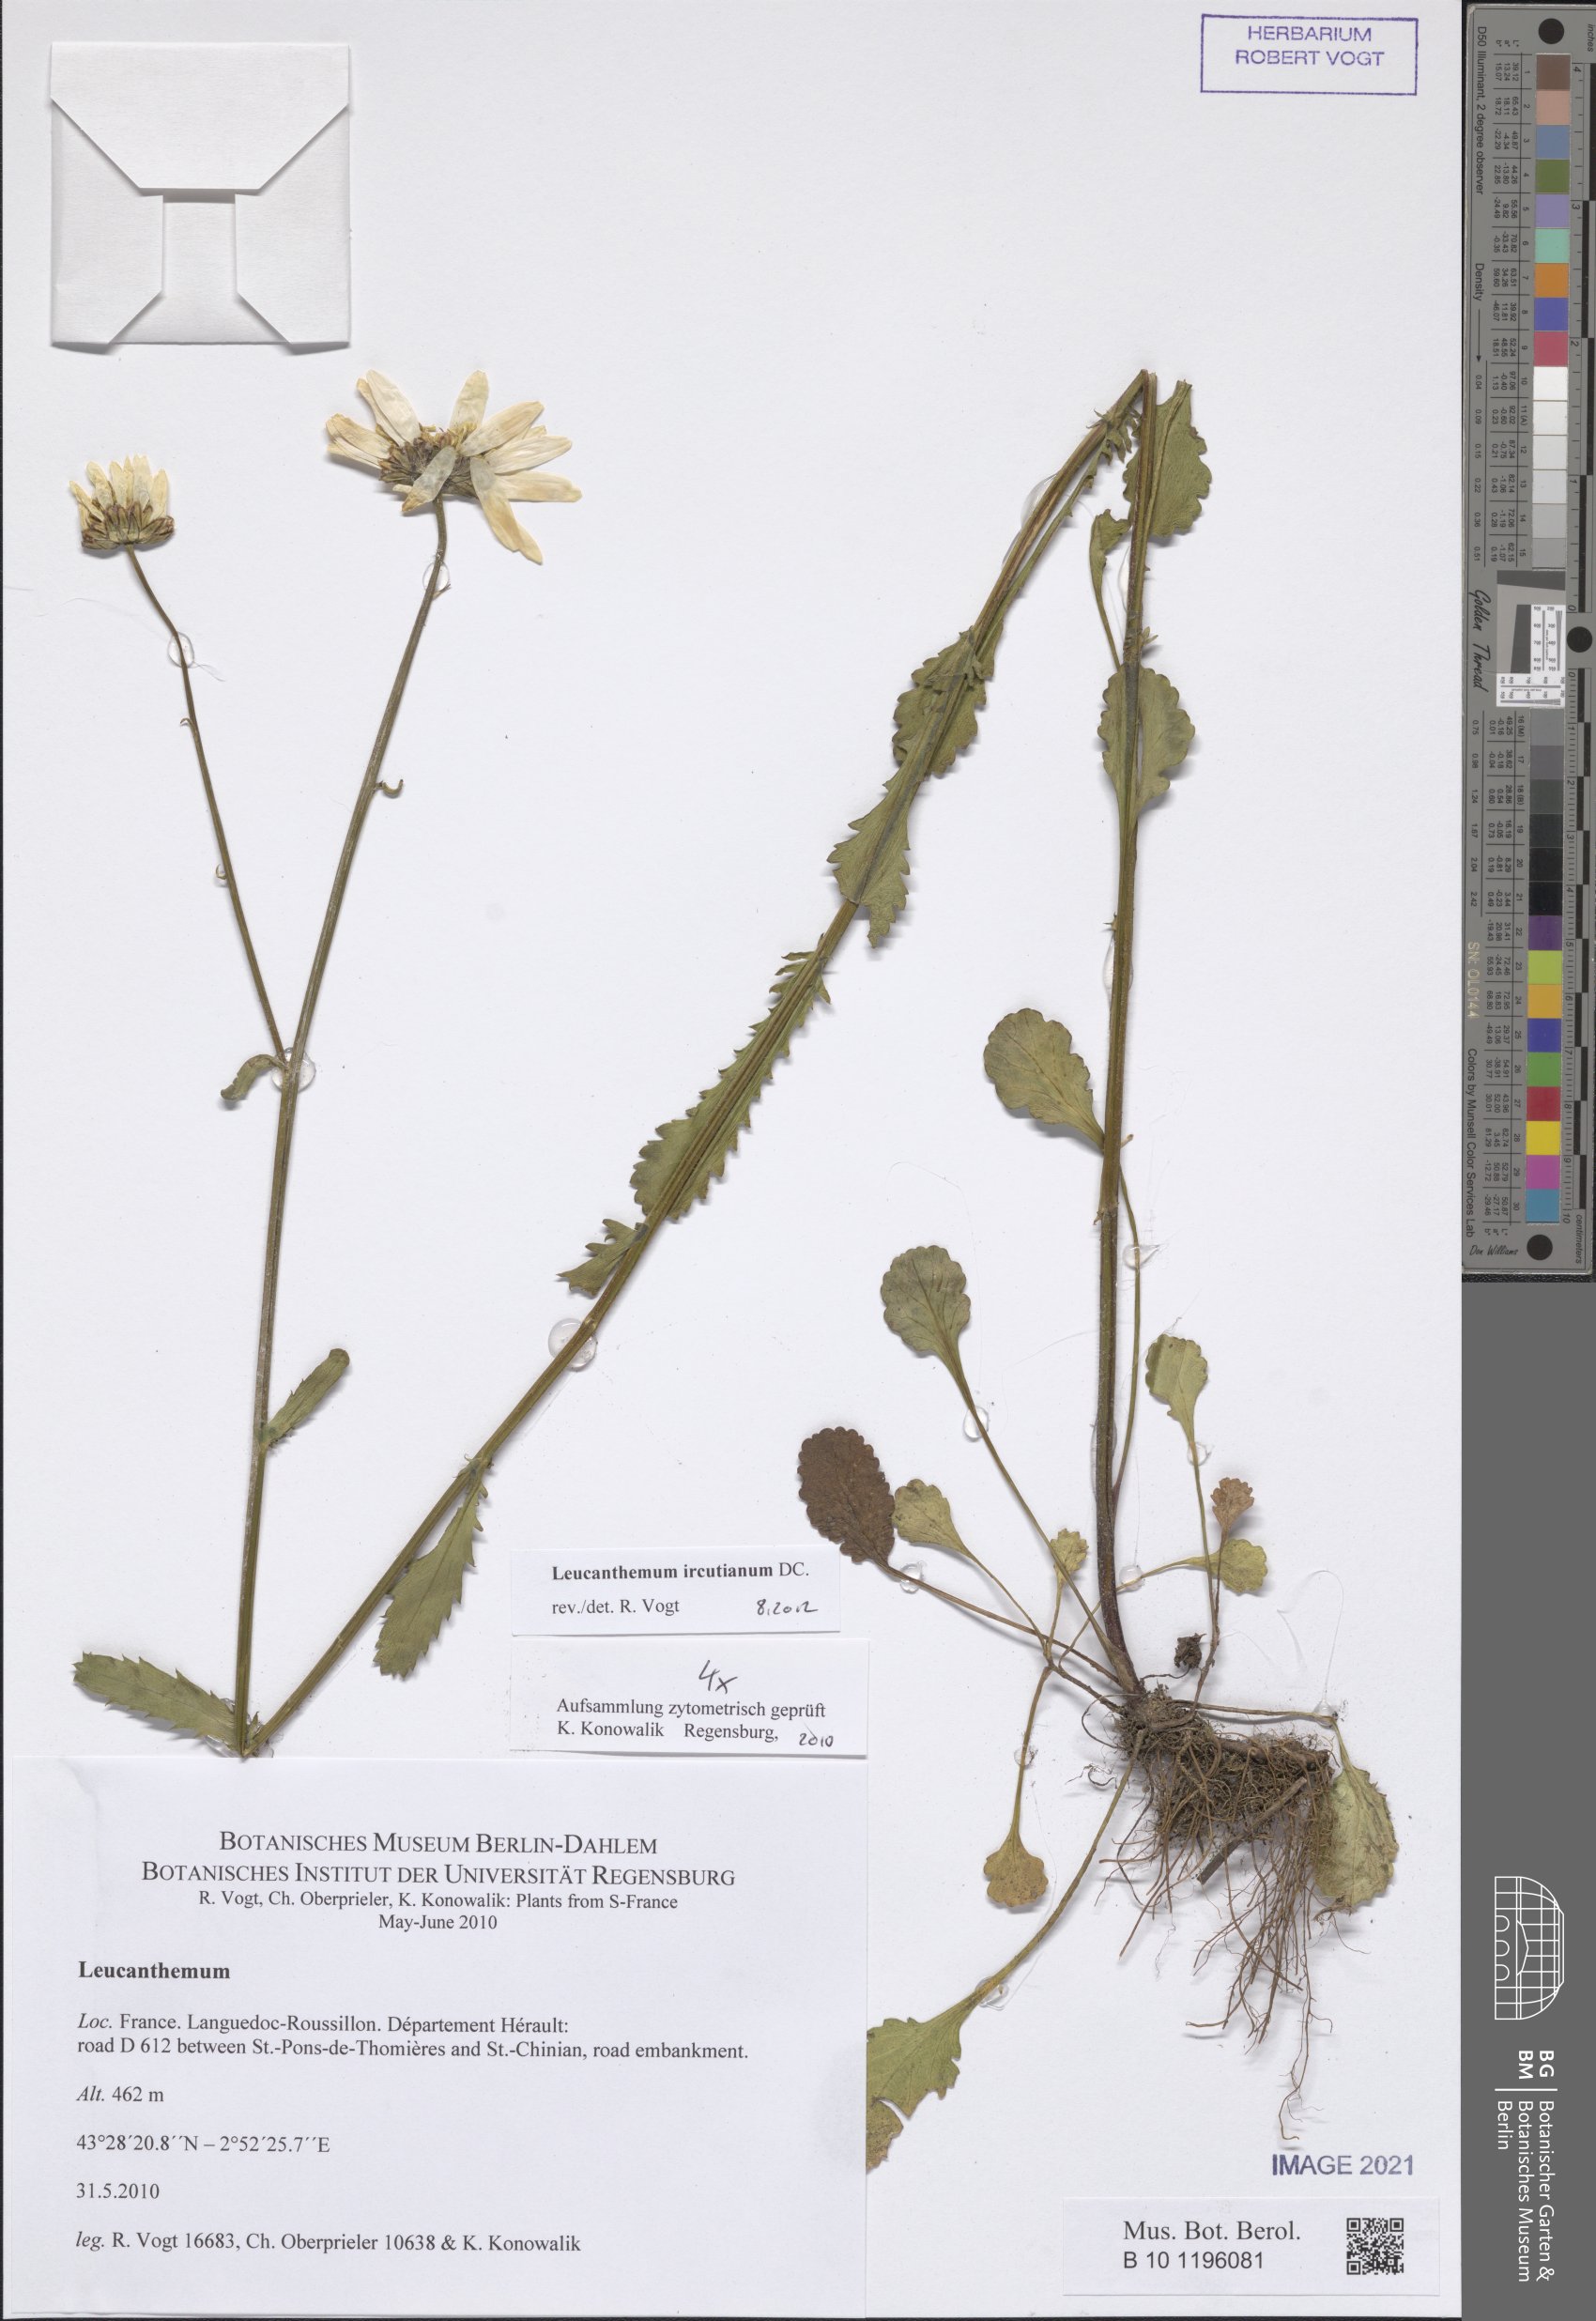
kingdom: Plantae
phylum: Tracheophyta
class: Magnoliopsida
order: Asterales
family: Asteraceae
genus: Leucanthemum
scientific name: Leucanthemum ircutianum
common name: Daisy
